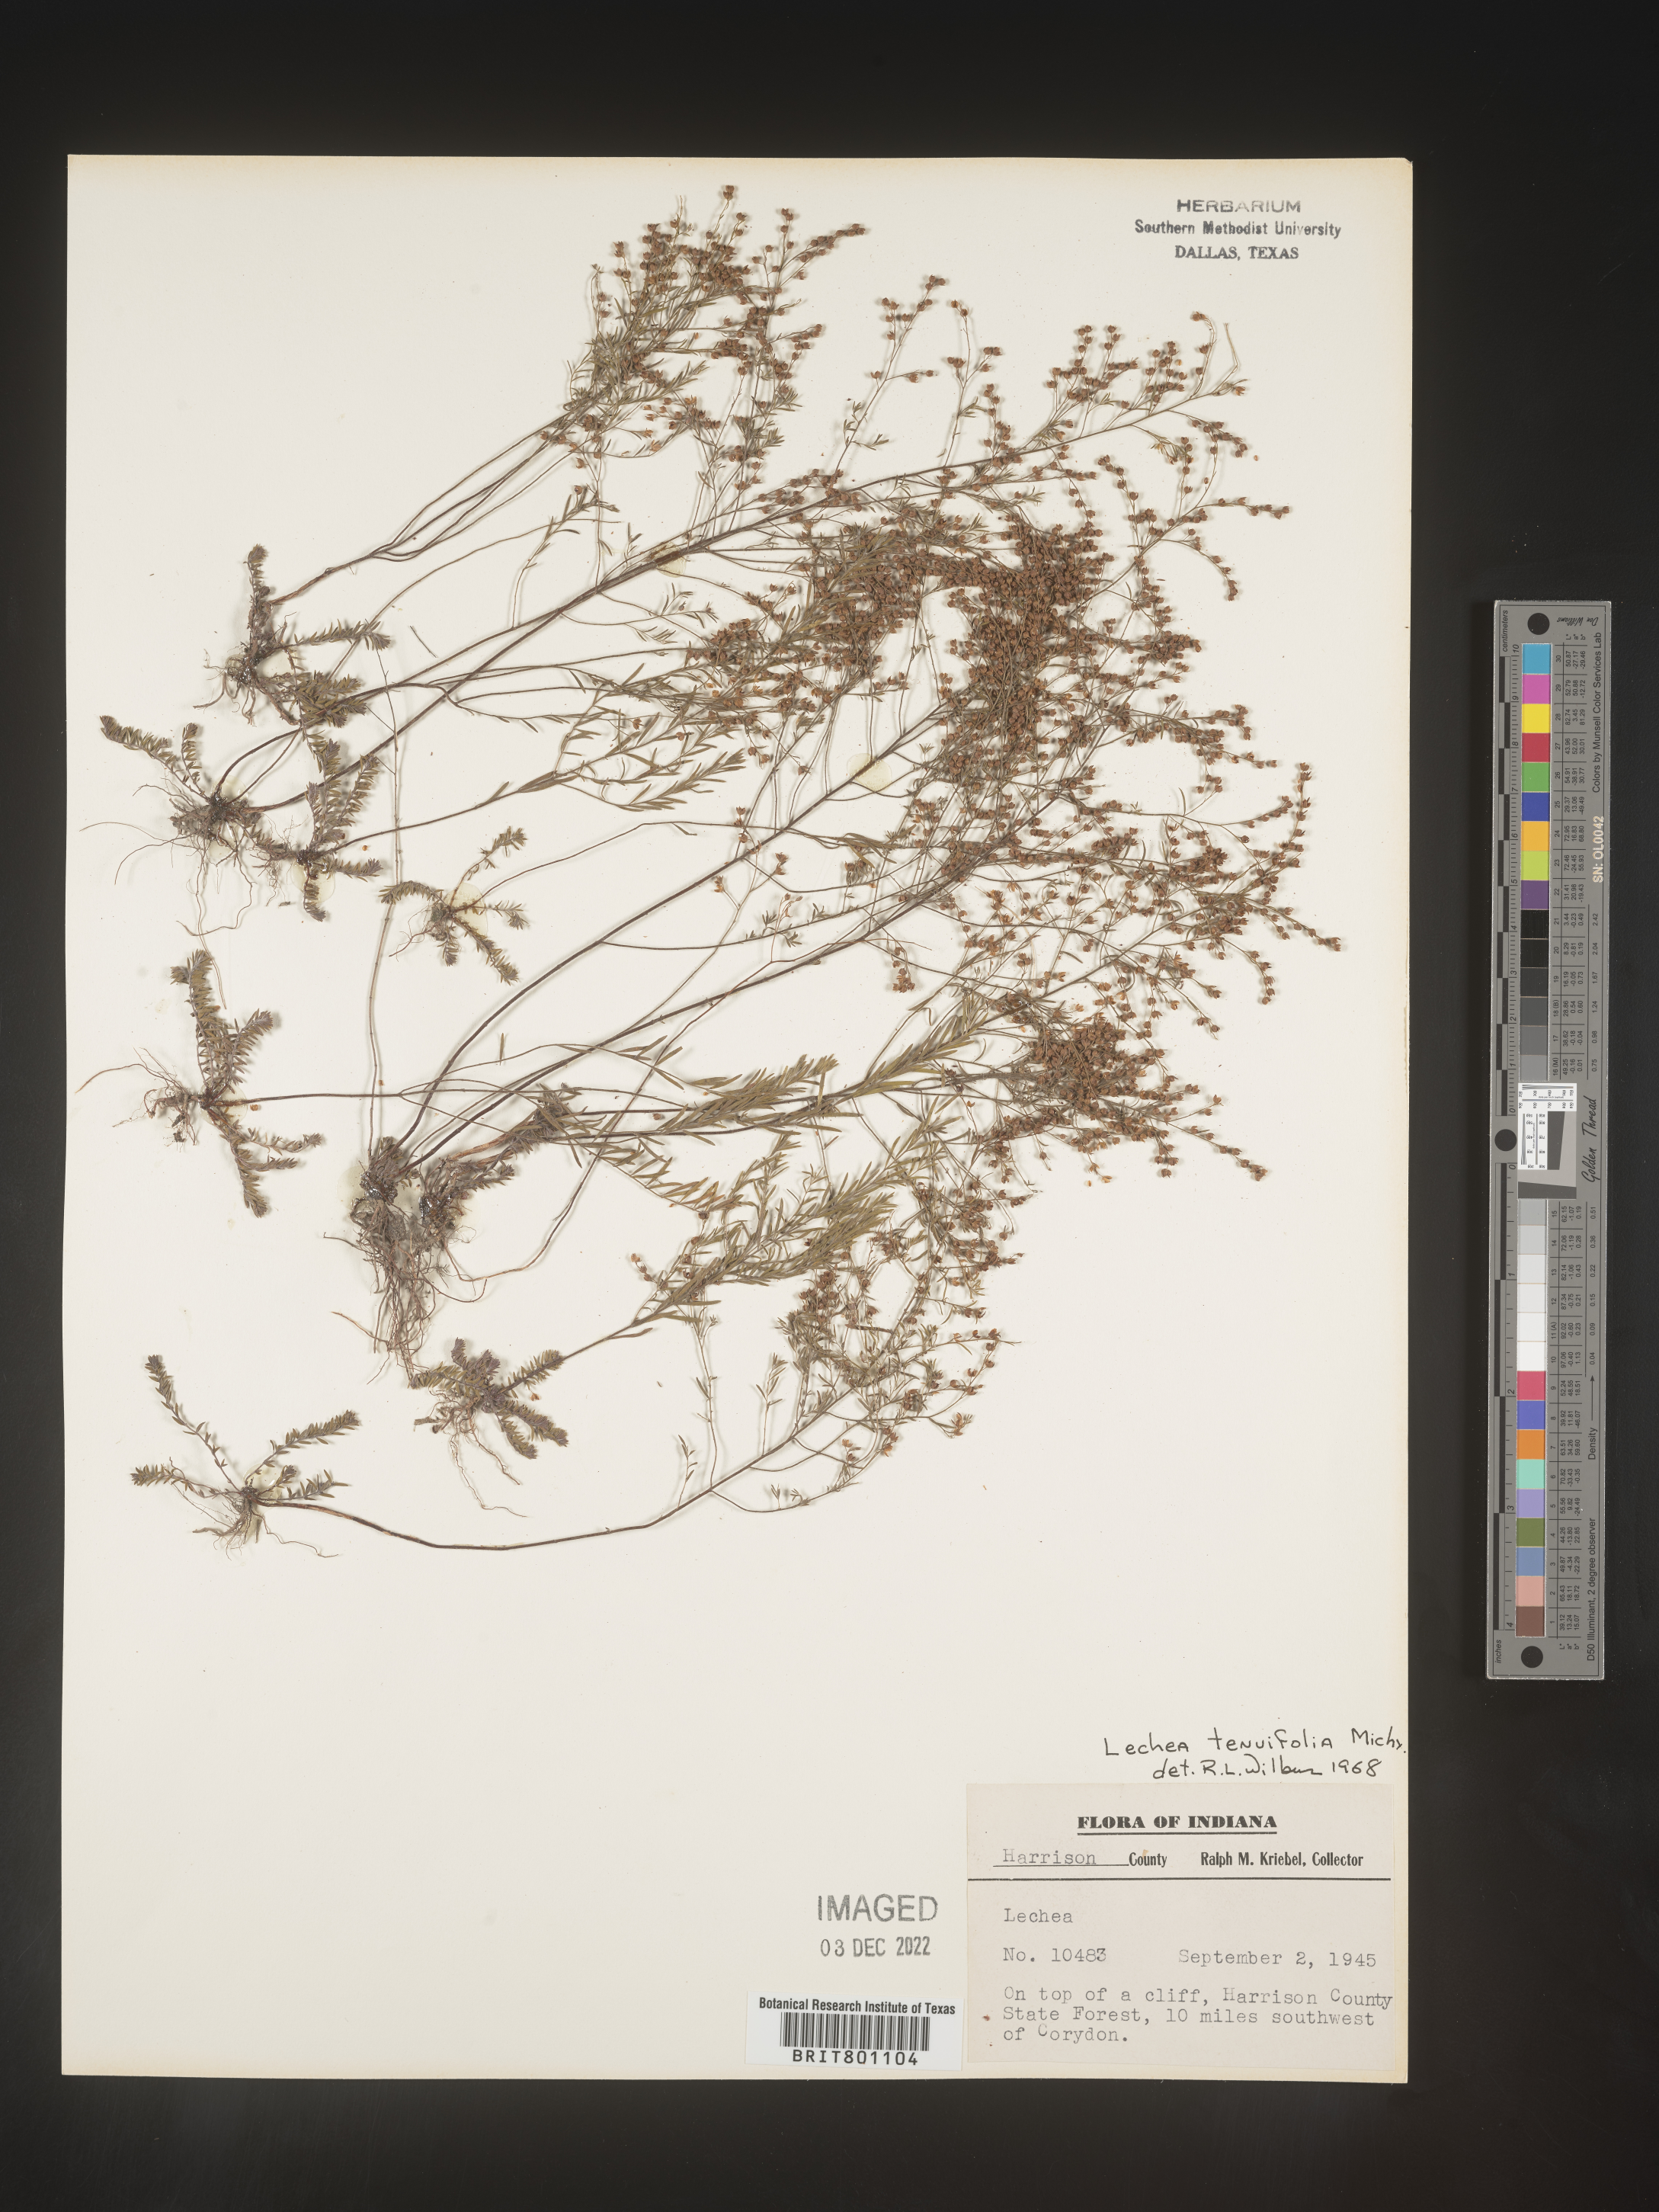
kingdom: Plantae
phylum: Tracheophyta
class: Magnoliopsida
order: Malvales
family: Cistaceae
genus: Lechea
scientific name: Lechea tenuifolia
